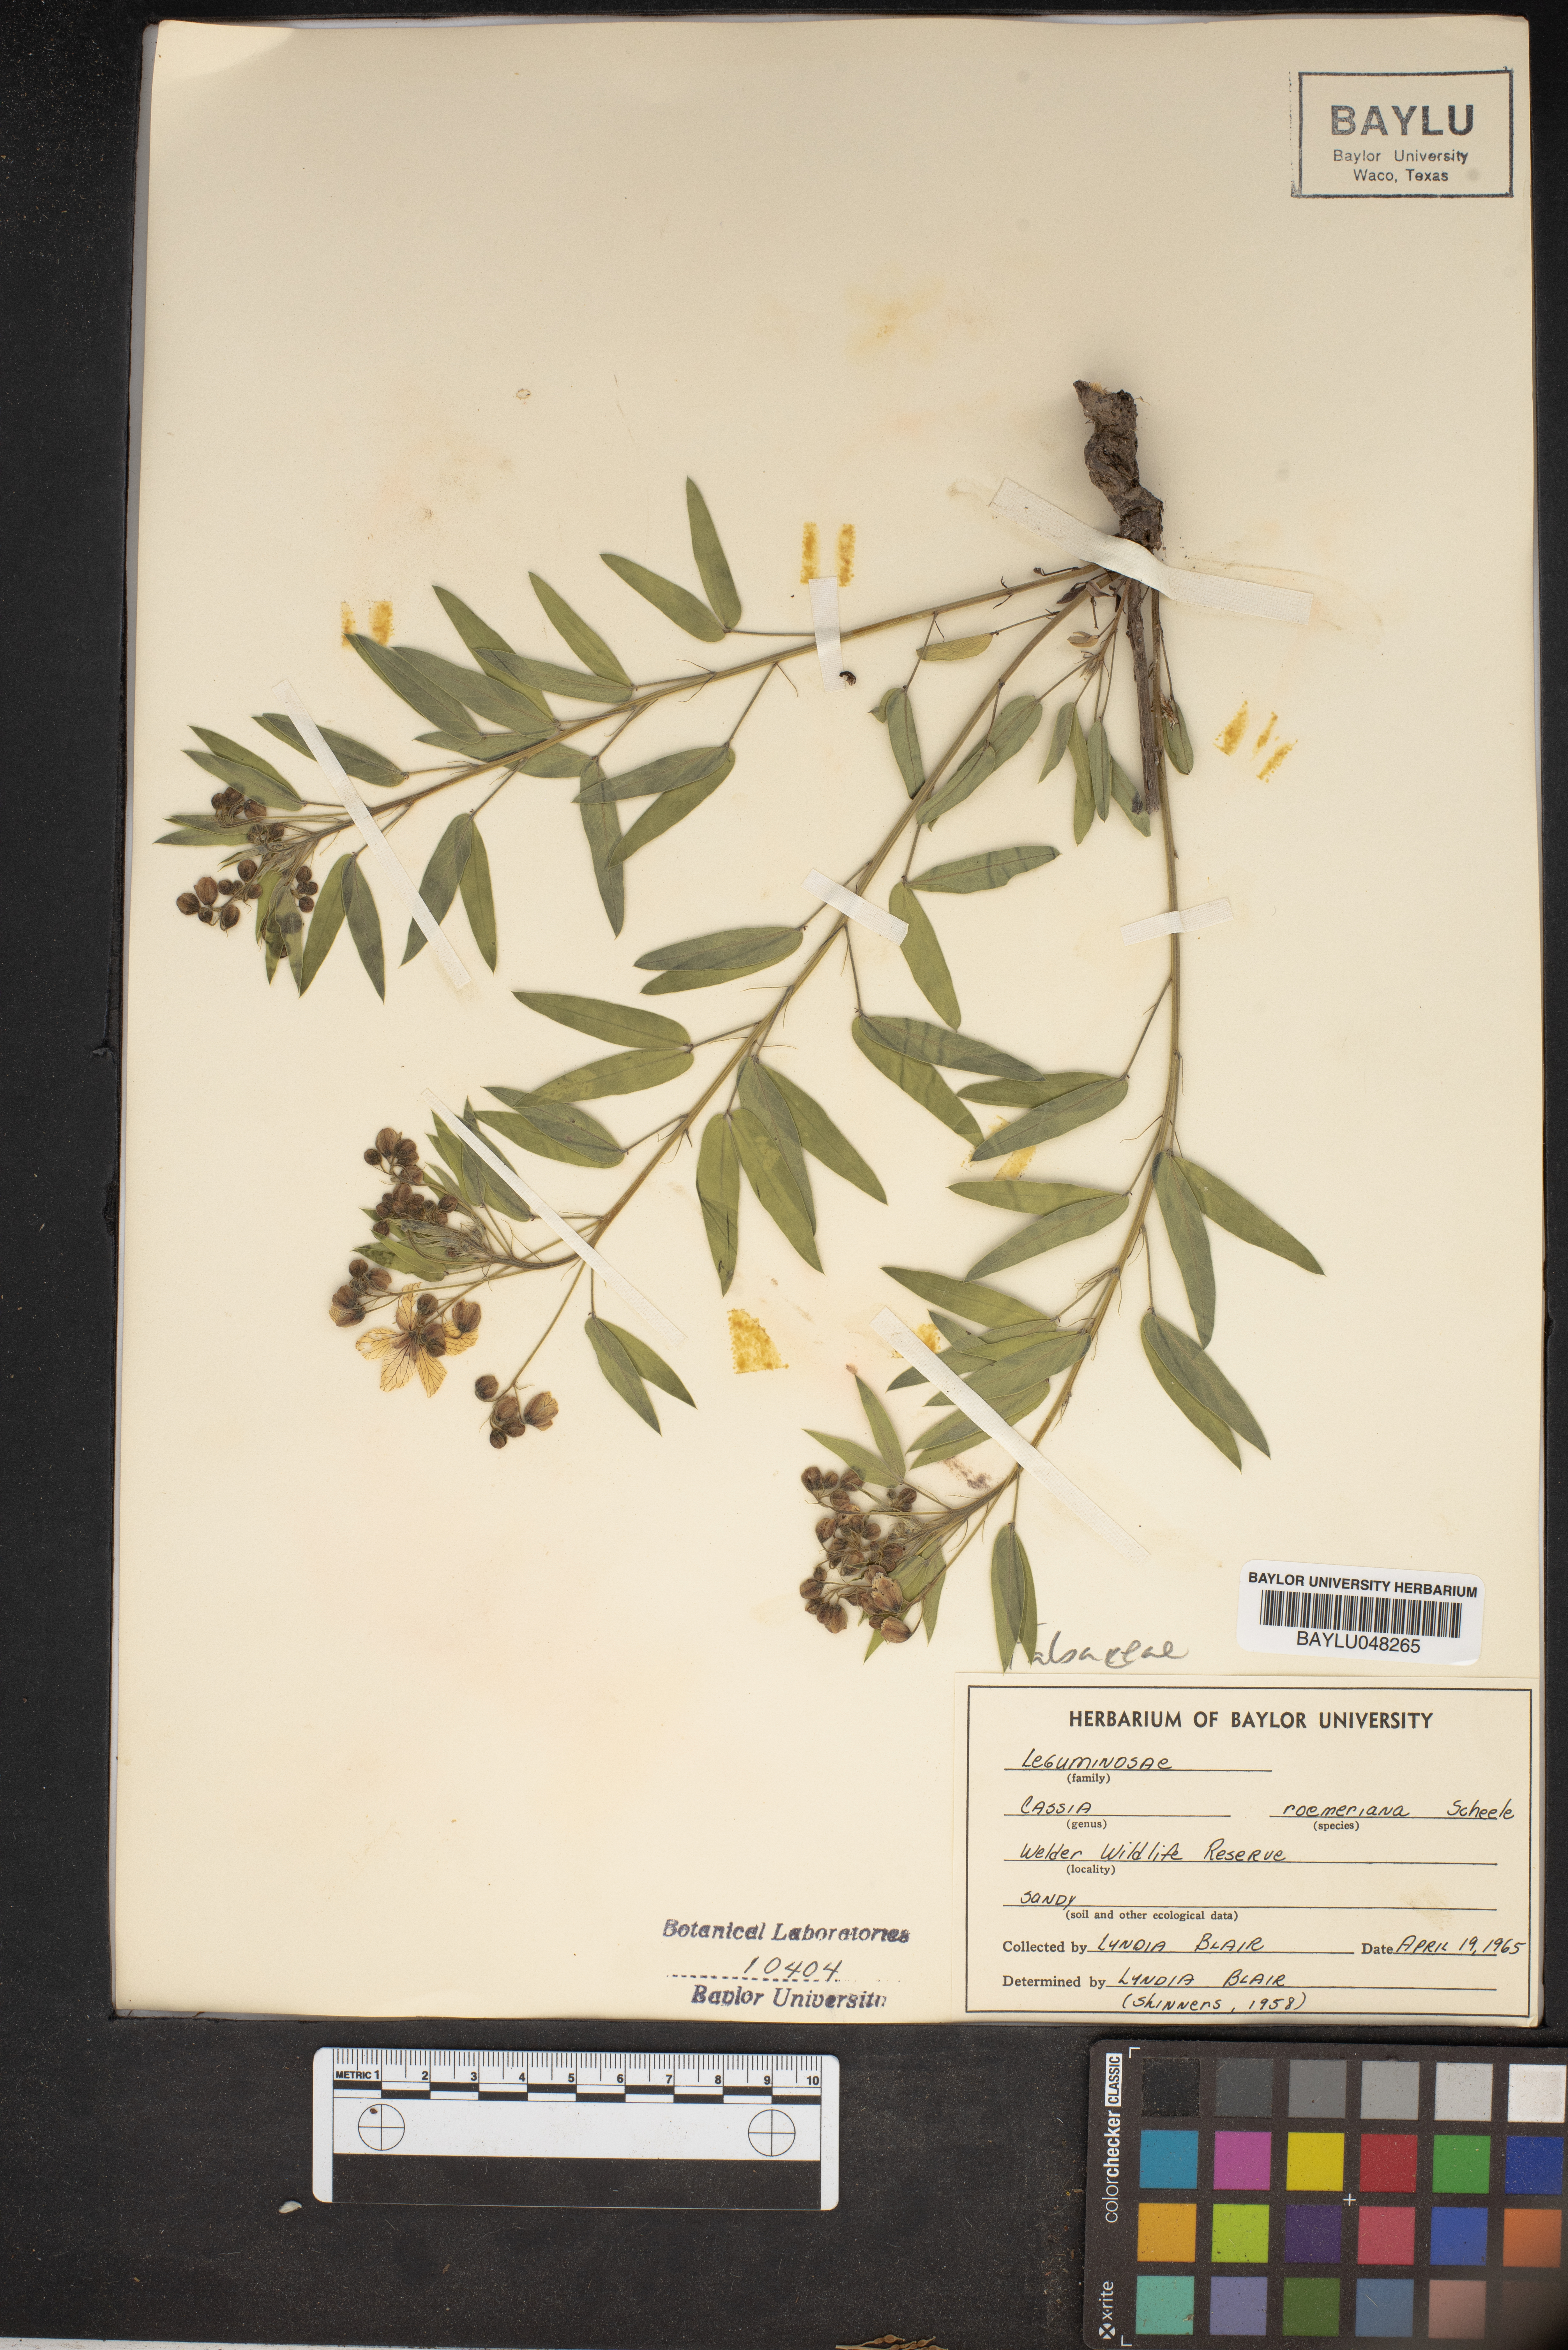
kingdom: Plantae
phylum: Tracheophyta
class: Magnoliopsida
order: Fabales
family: Fabaceae
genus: Senna
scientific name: Senna roemeriana
